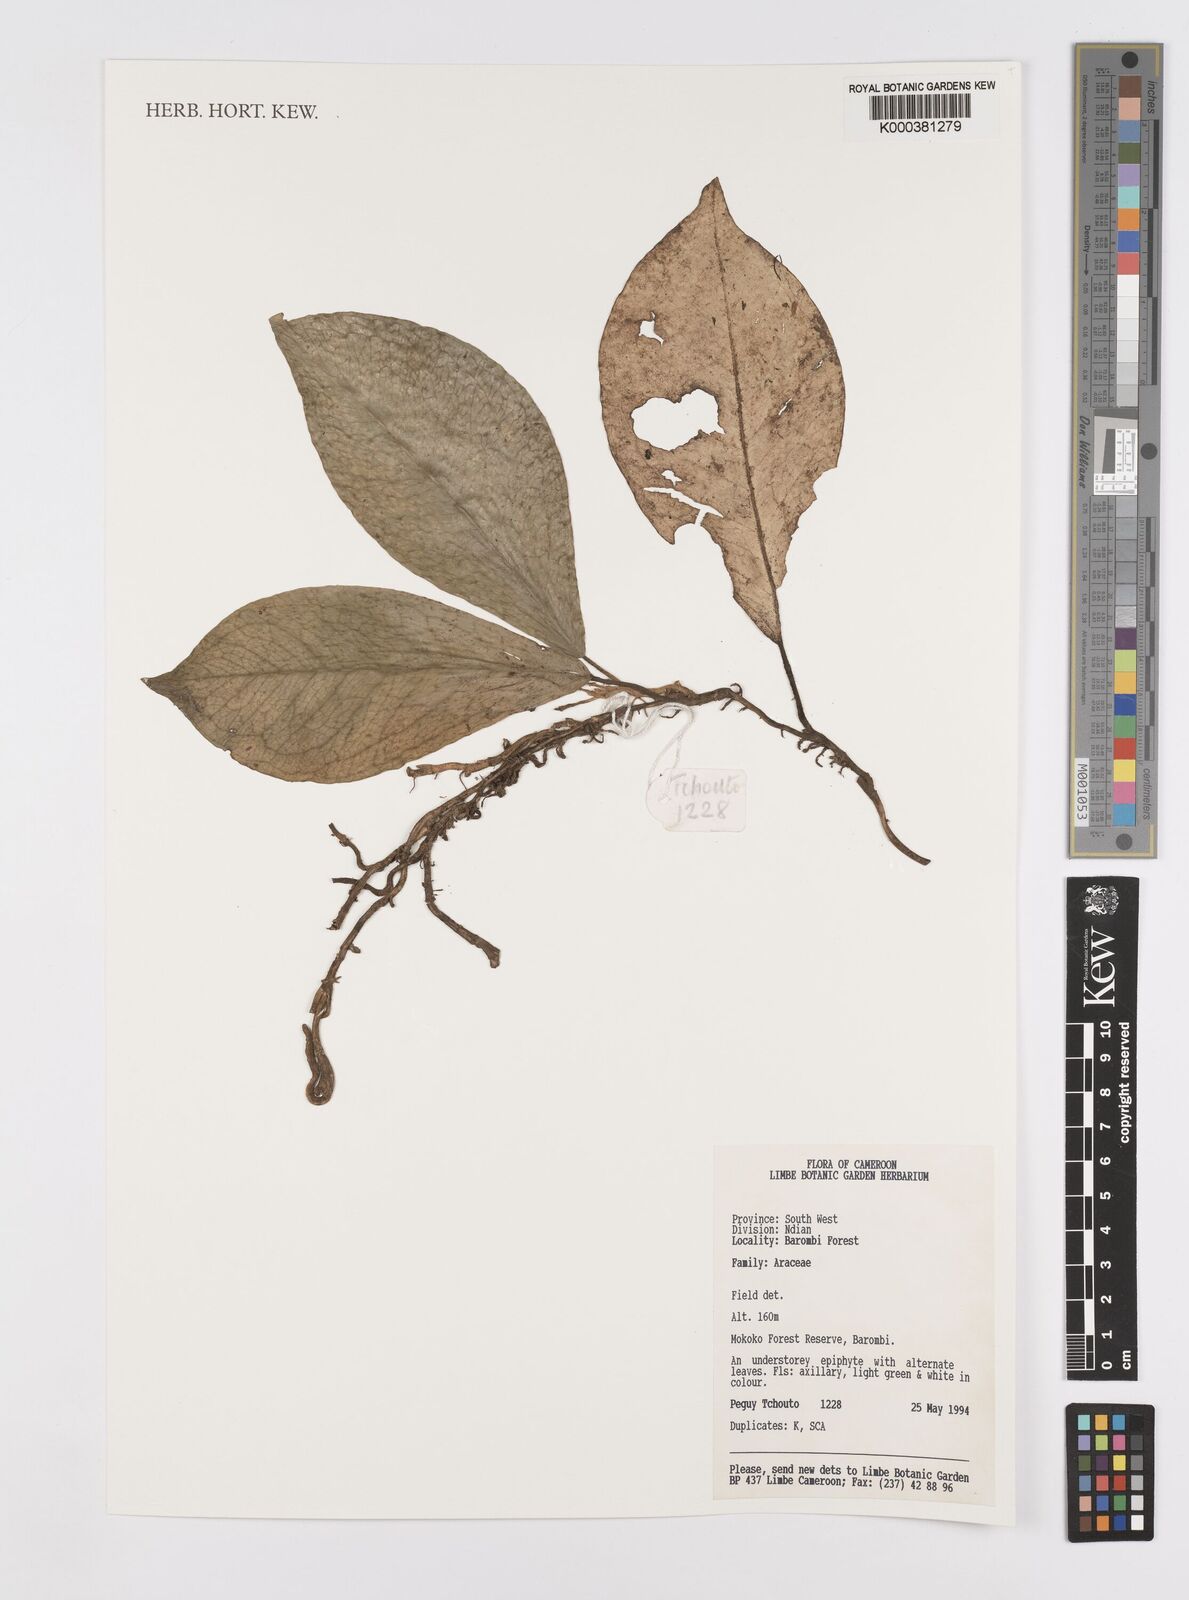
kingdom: Plantae
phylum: Tracheophyta
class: Liliopsida
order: Alismatales
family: Araceae
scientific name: Araceae
